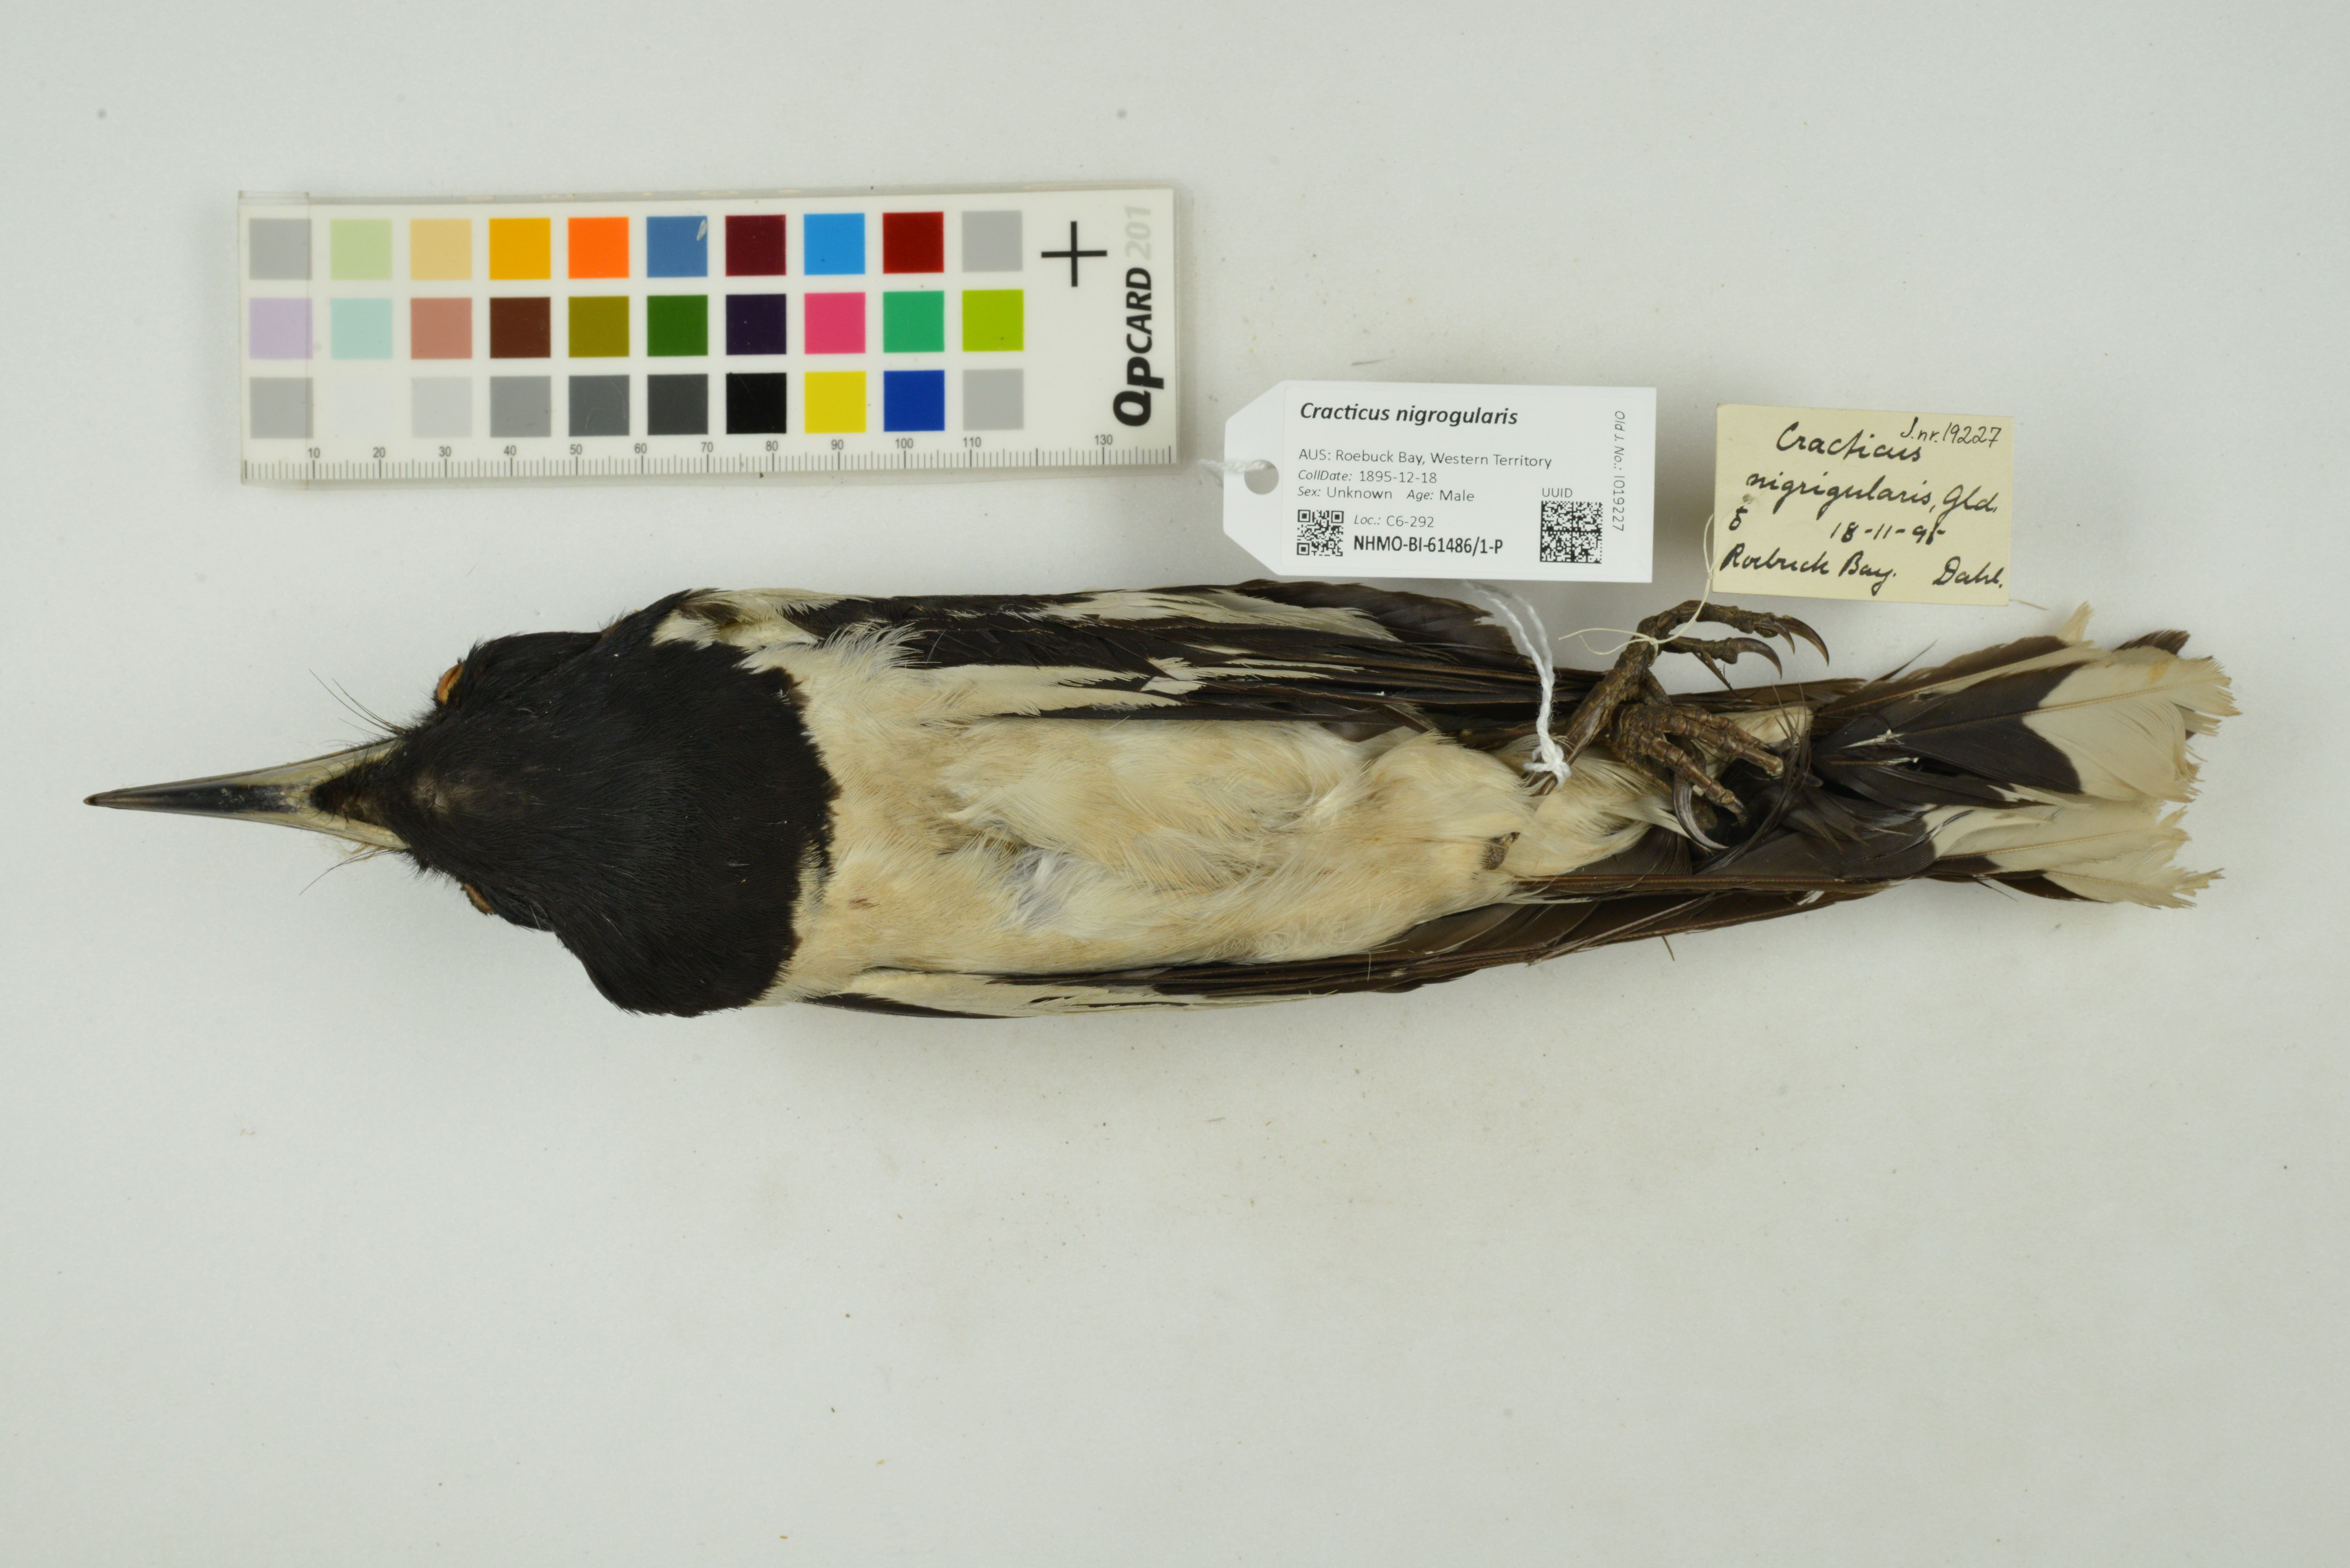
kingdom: Animalia
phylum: Chordata
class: Aves
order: Passeriformes
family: Cracticidae
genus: Cracticus
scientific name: Cracticus nigrogularis
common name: Pied butcherbird
